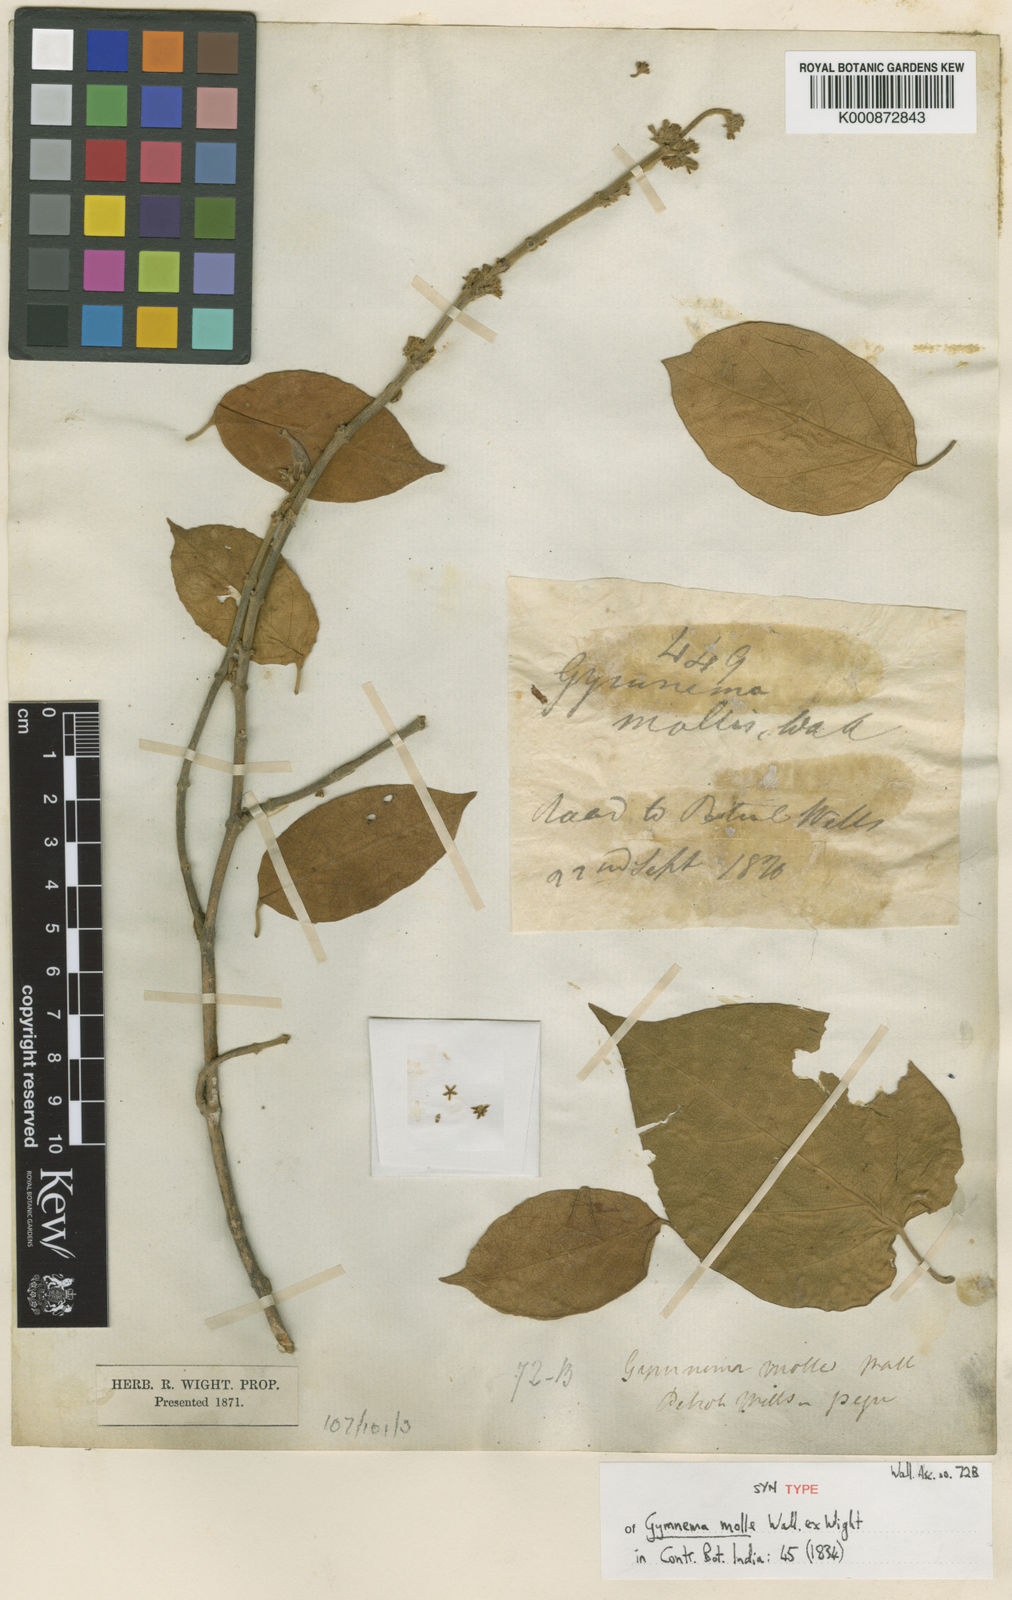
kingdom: Plantae
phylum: Tracheophyta
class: Magnoliopsida
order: Gentianales
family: Apocynaceae
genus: Gymnema
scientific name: Gymnema molle
